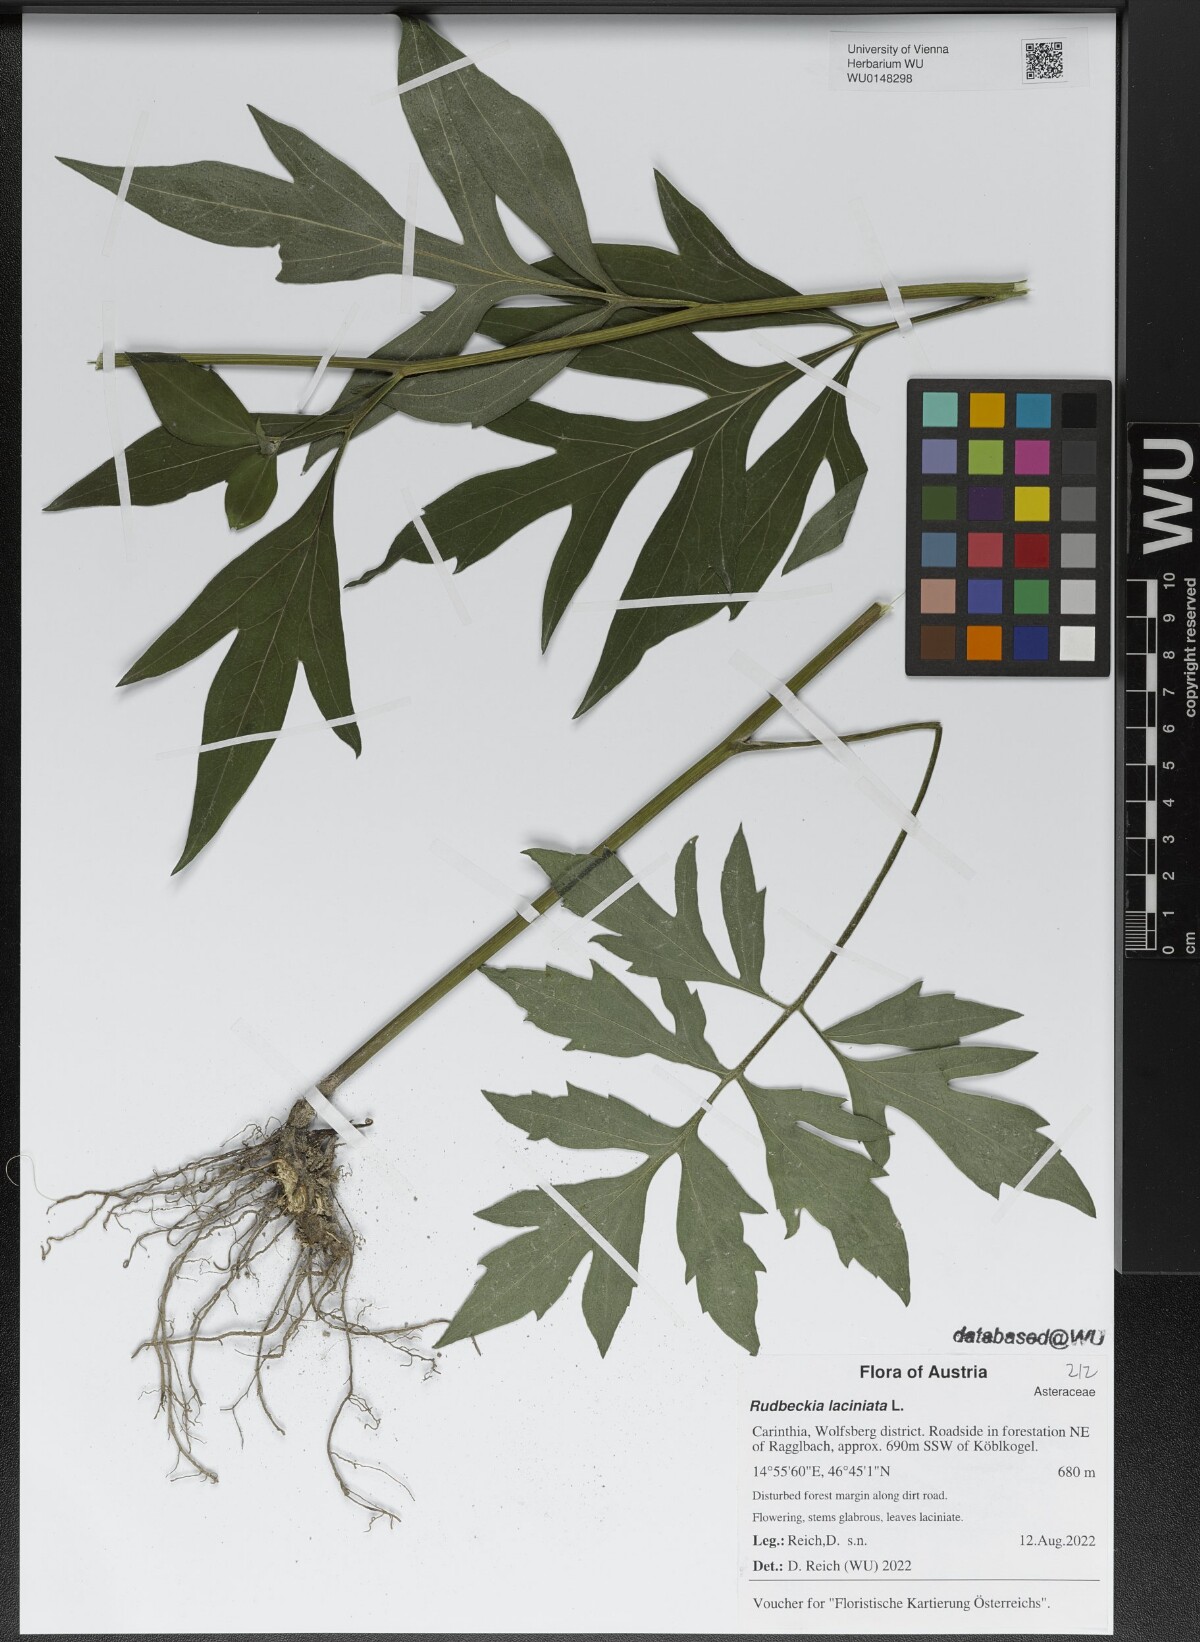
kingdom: Plantae
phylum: Tracheophyta
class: Magnoliopsida
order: Asterales
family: Asteraceae
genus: Rudbeckia
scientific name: Rudbeckia laciniata
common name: Coneflower
